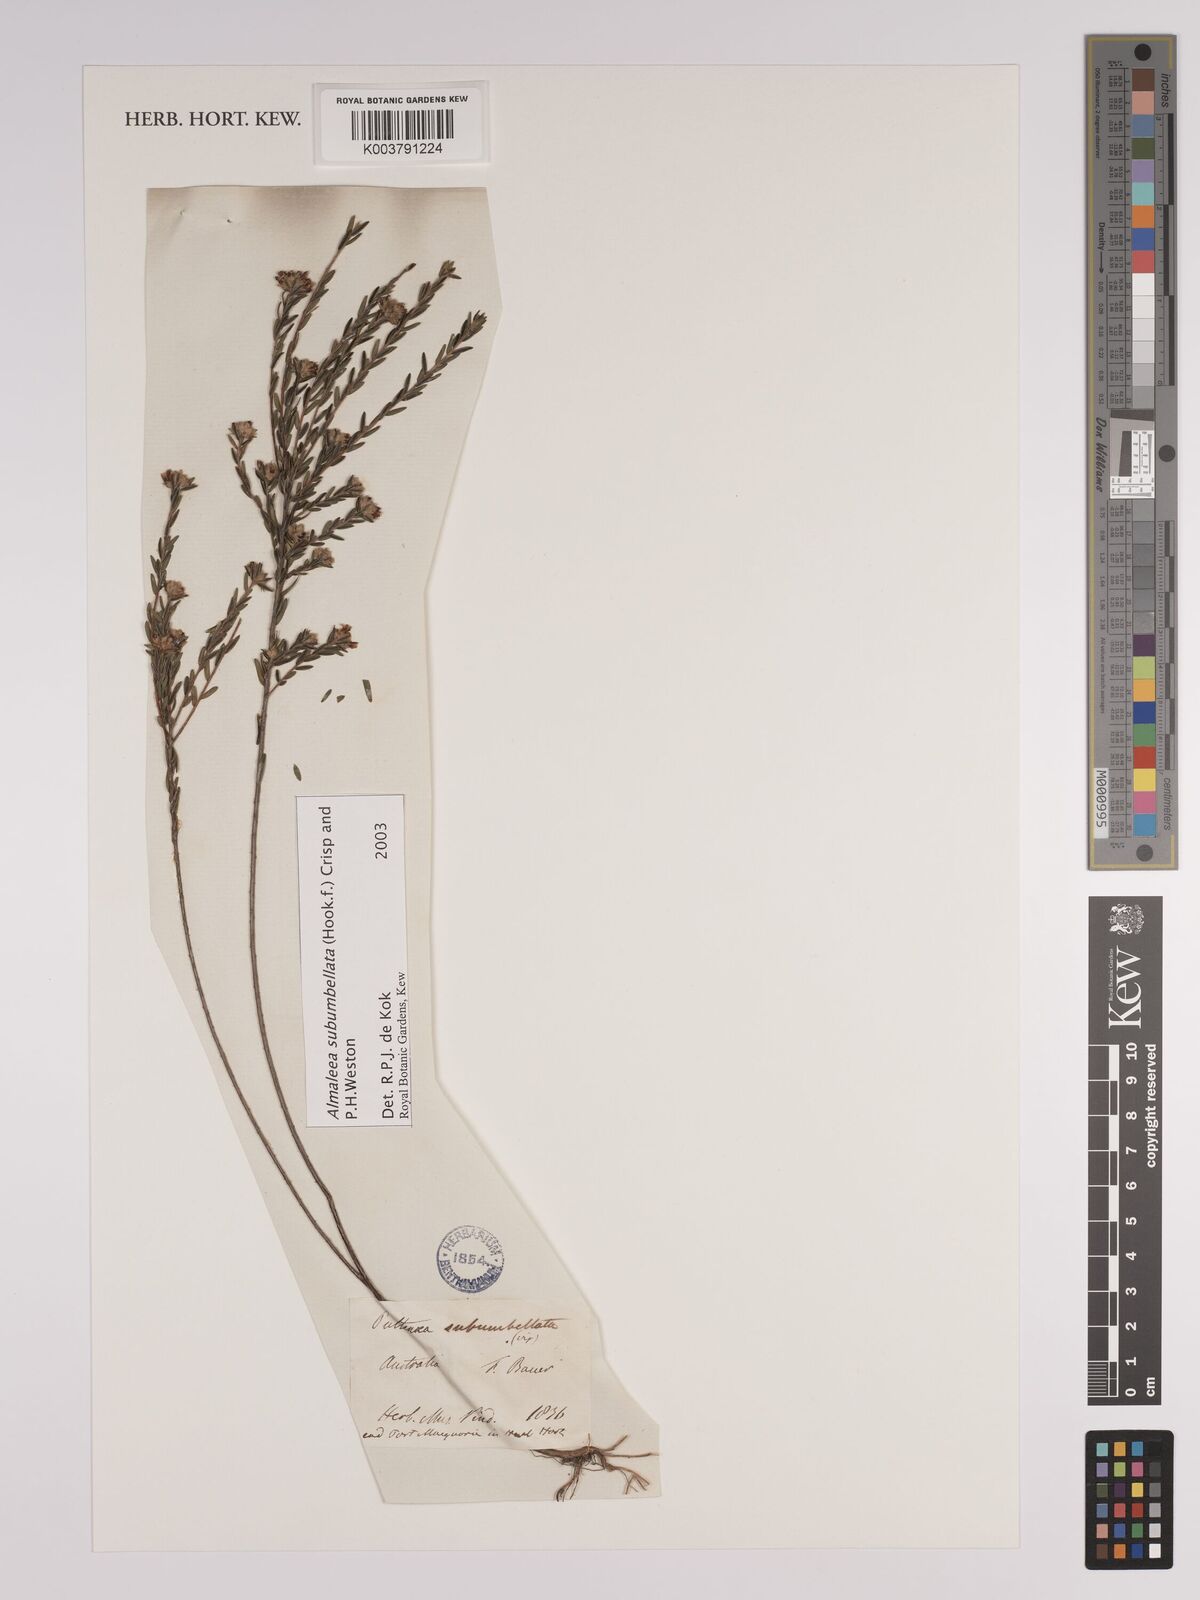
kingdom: Plantae
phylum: Tracheophyta
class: Magnoliopsida
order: Fabales
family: Fabaceae
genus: Almaleea
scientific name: Almaleea subumbellata
